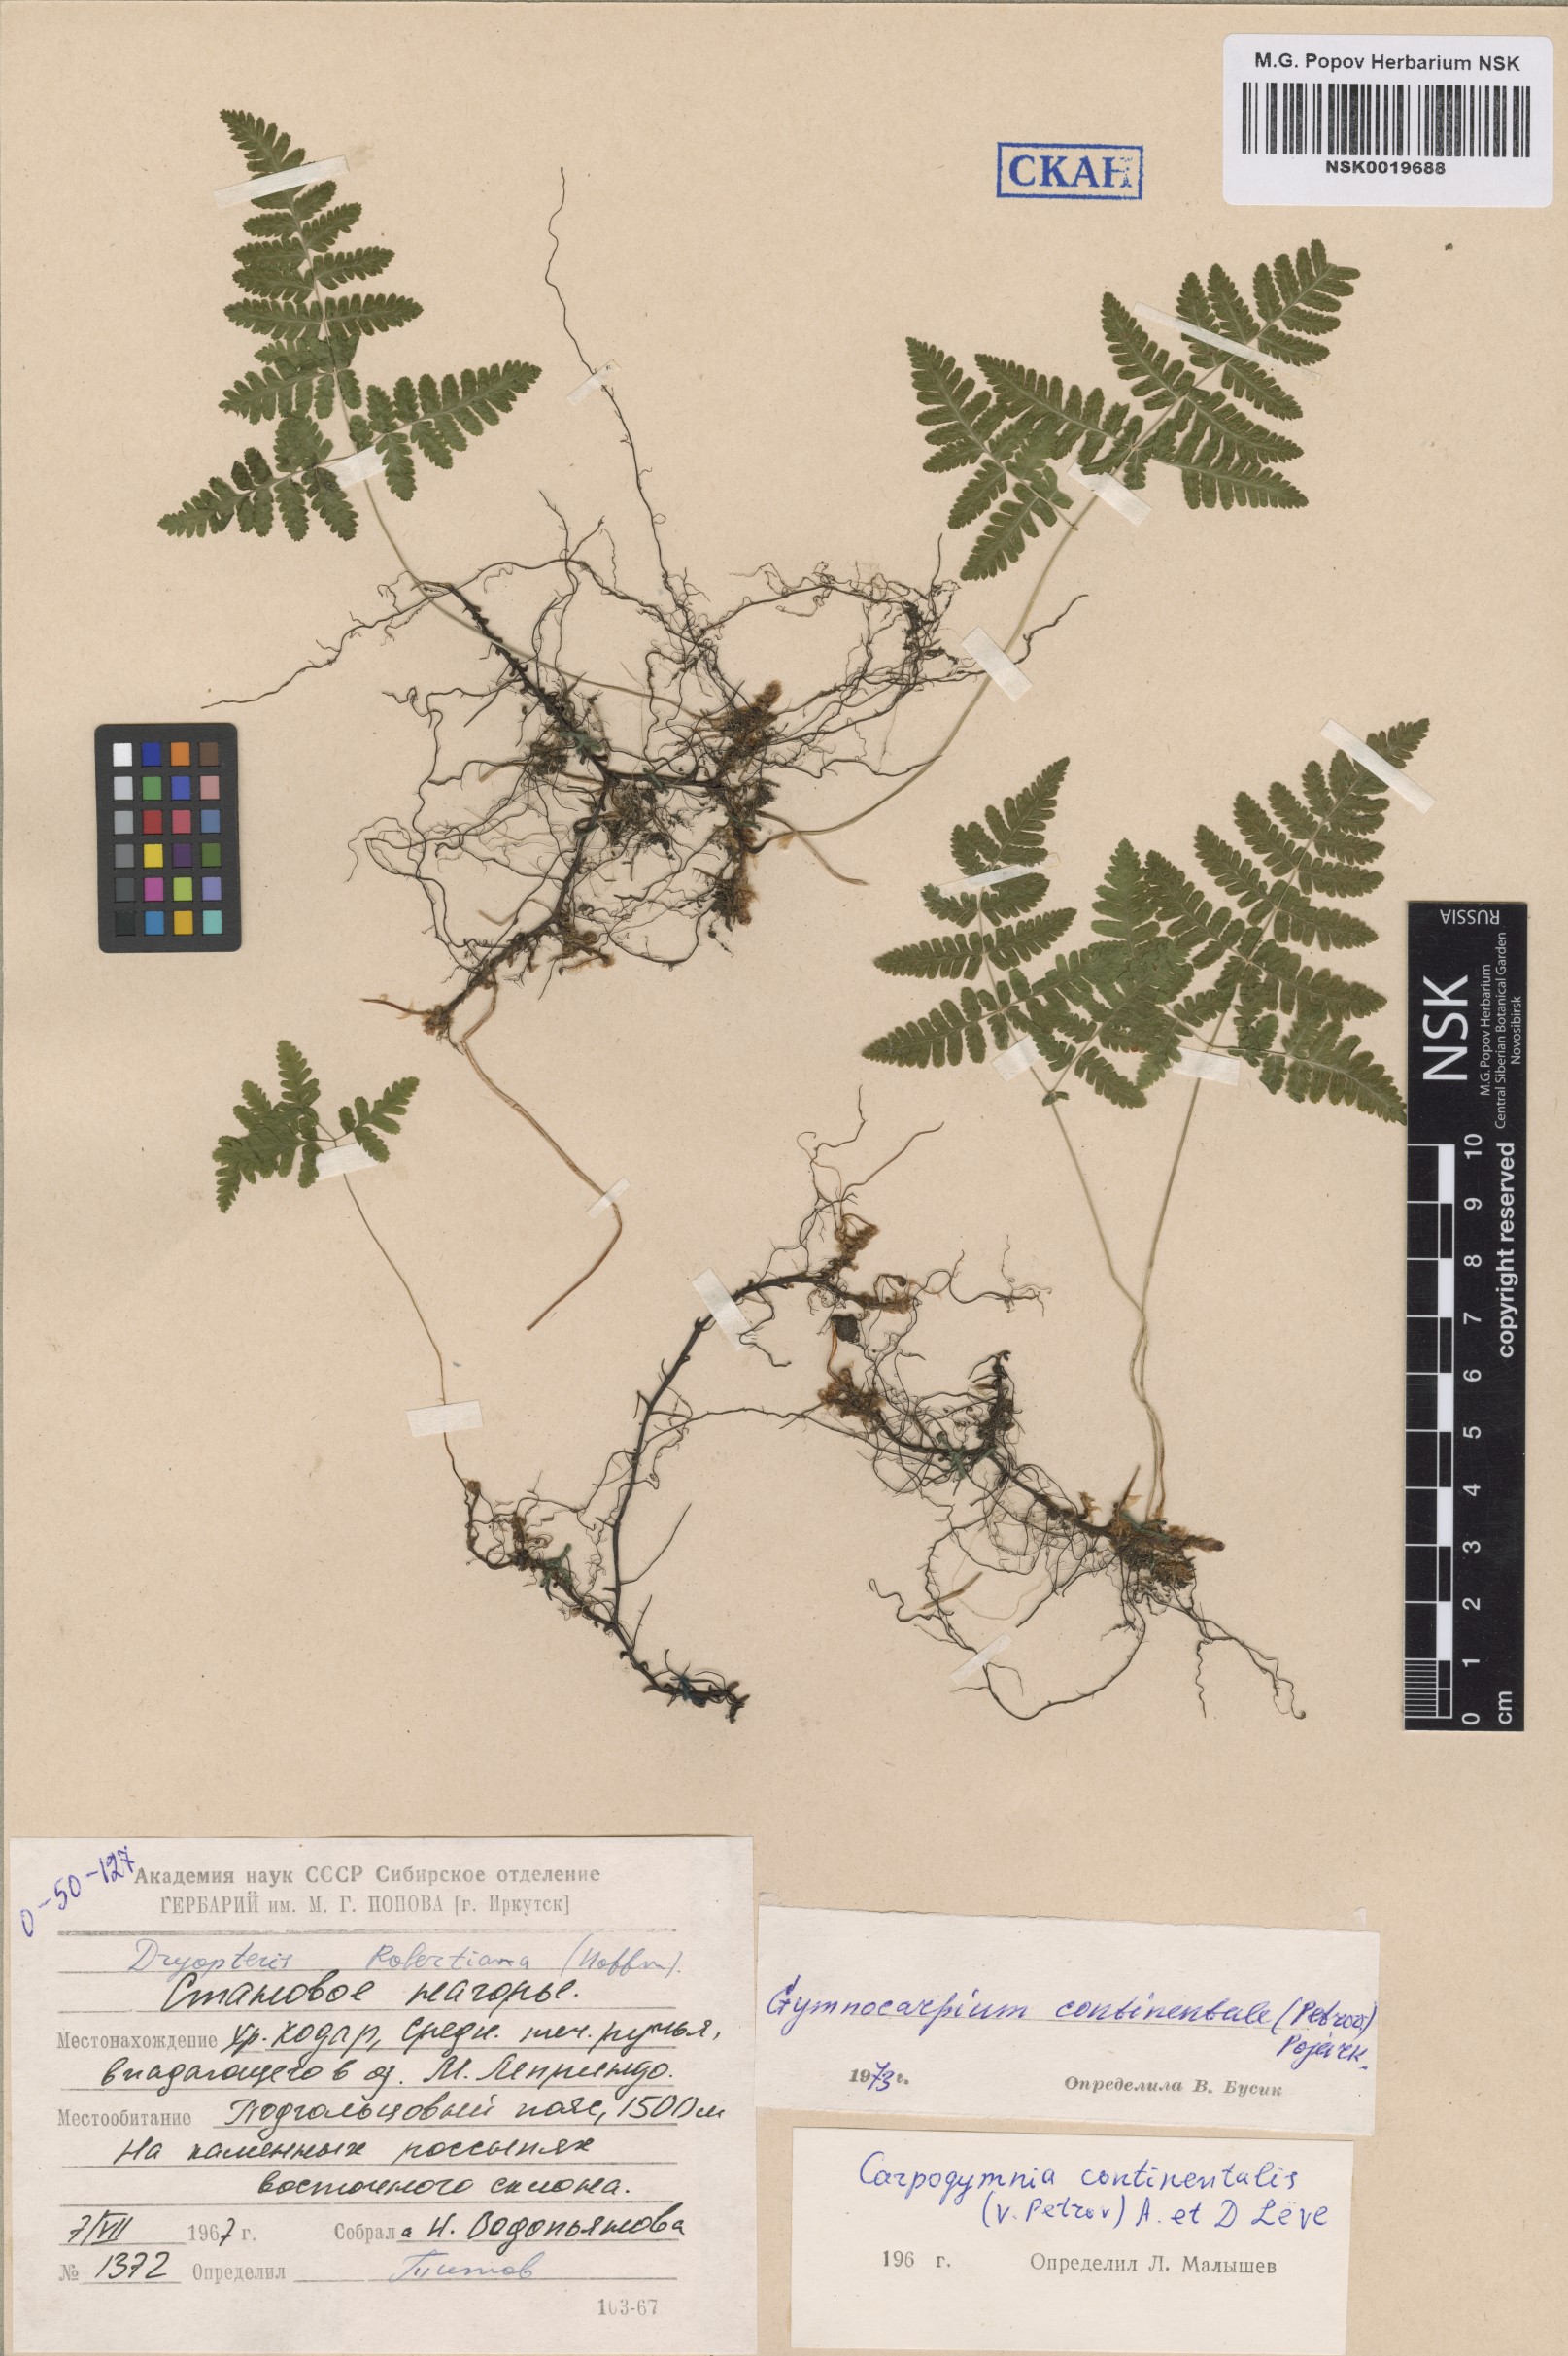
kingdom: Plantae
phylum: Tracheophyta
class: Polypodiopsida
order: Polypodiales
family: Cystopteridaceae
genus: Gymnocarpium
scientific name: Gymnocarpium continentale
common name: Asian oak fern
